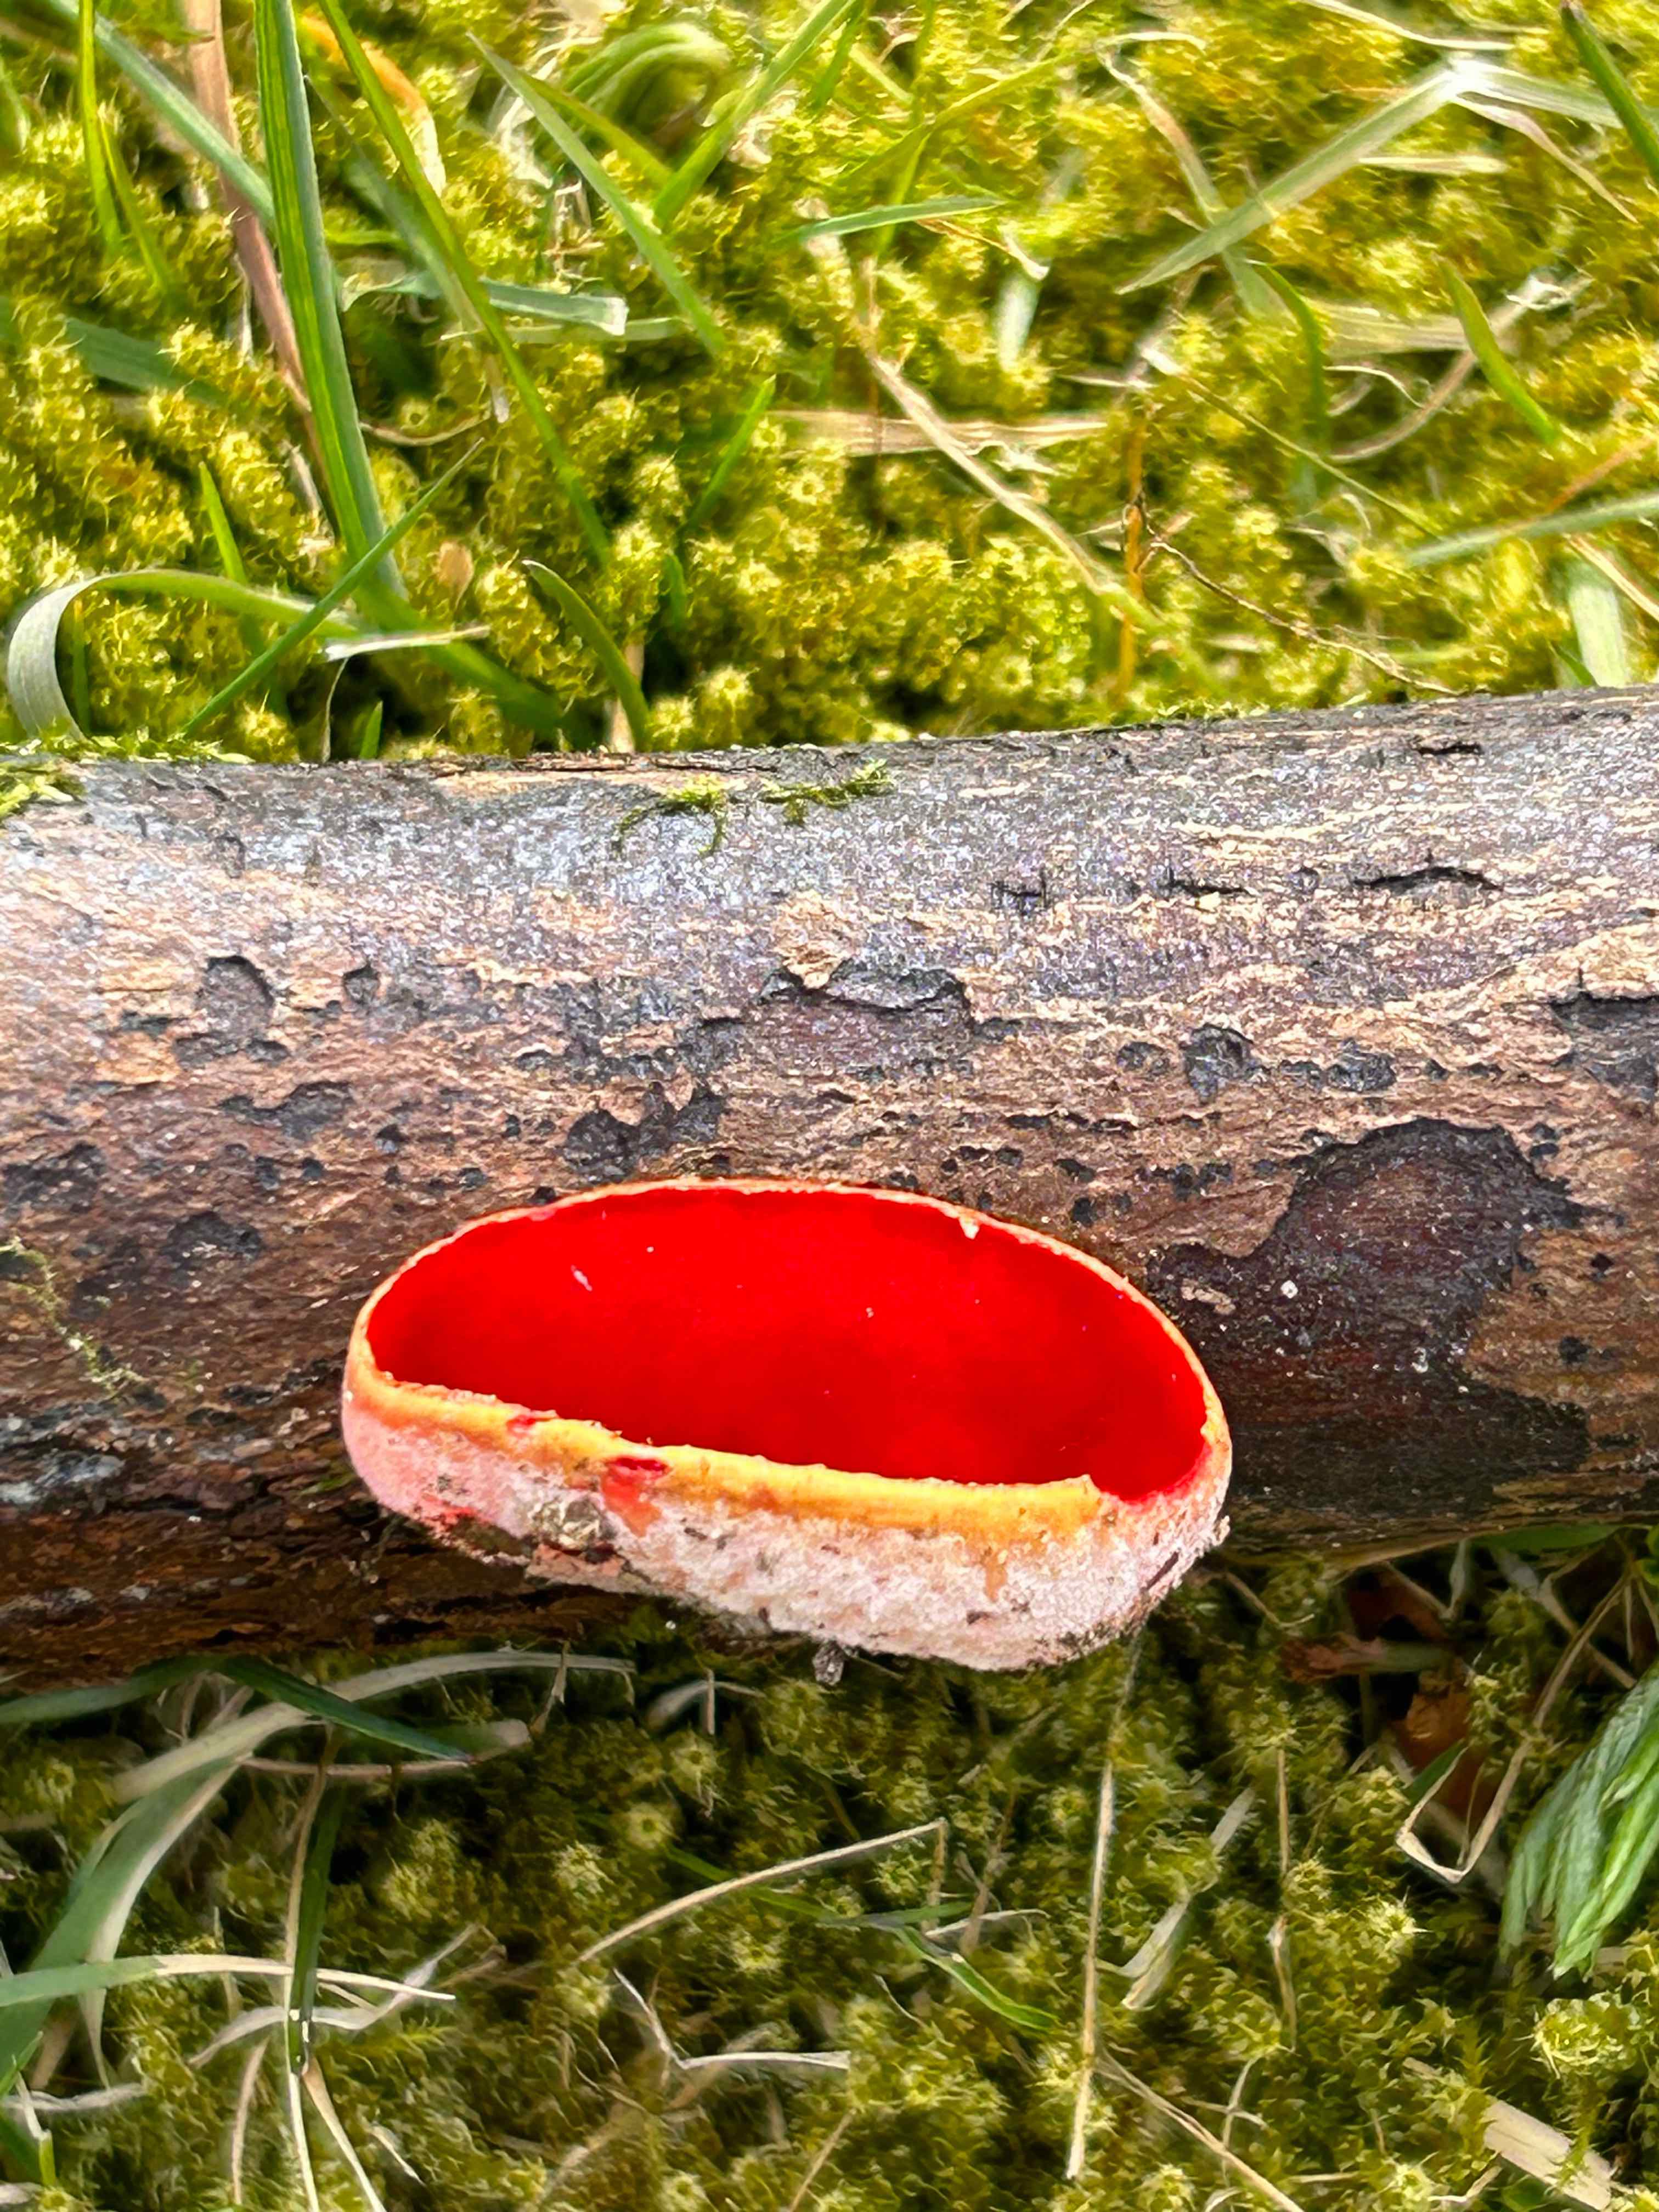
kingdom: Fungi
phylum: Ascomycota
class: Pezizomycetes
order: Pezizales
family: Sarcoscyphaceae
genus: Sarcoscypha
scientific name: Sarcoscypha austriaca
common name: krølhåret pragtbæger
